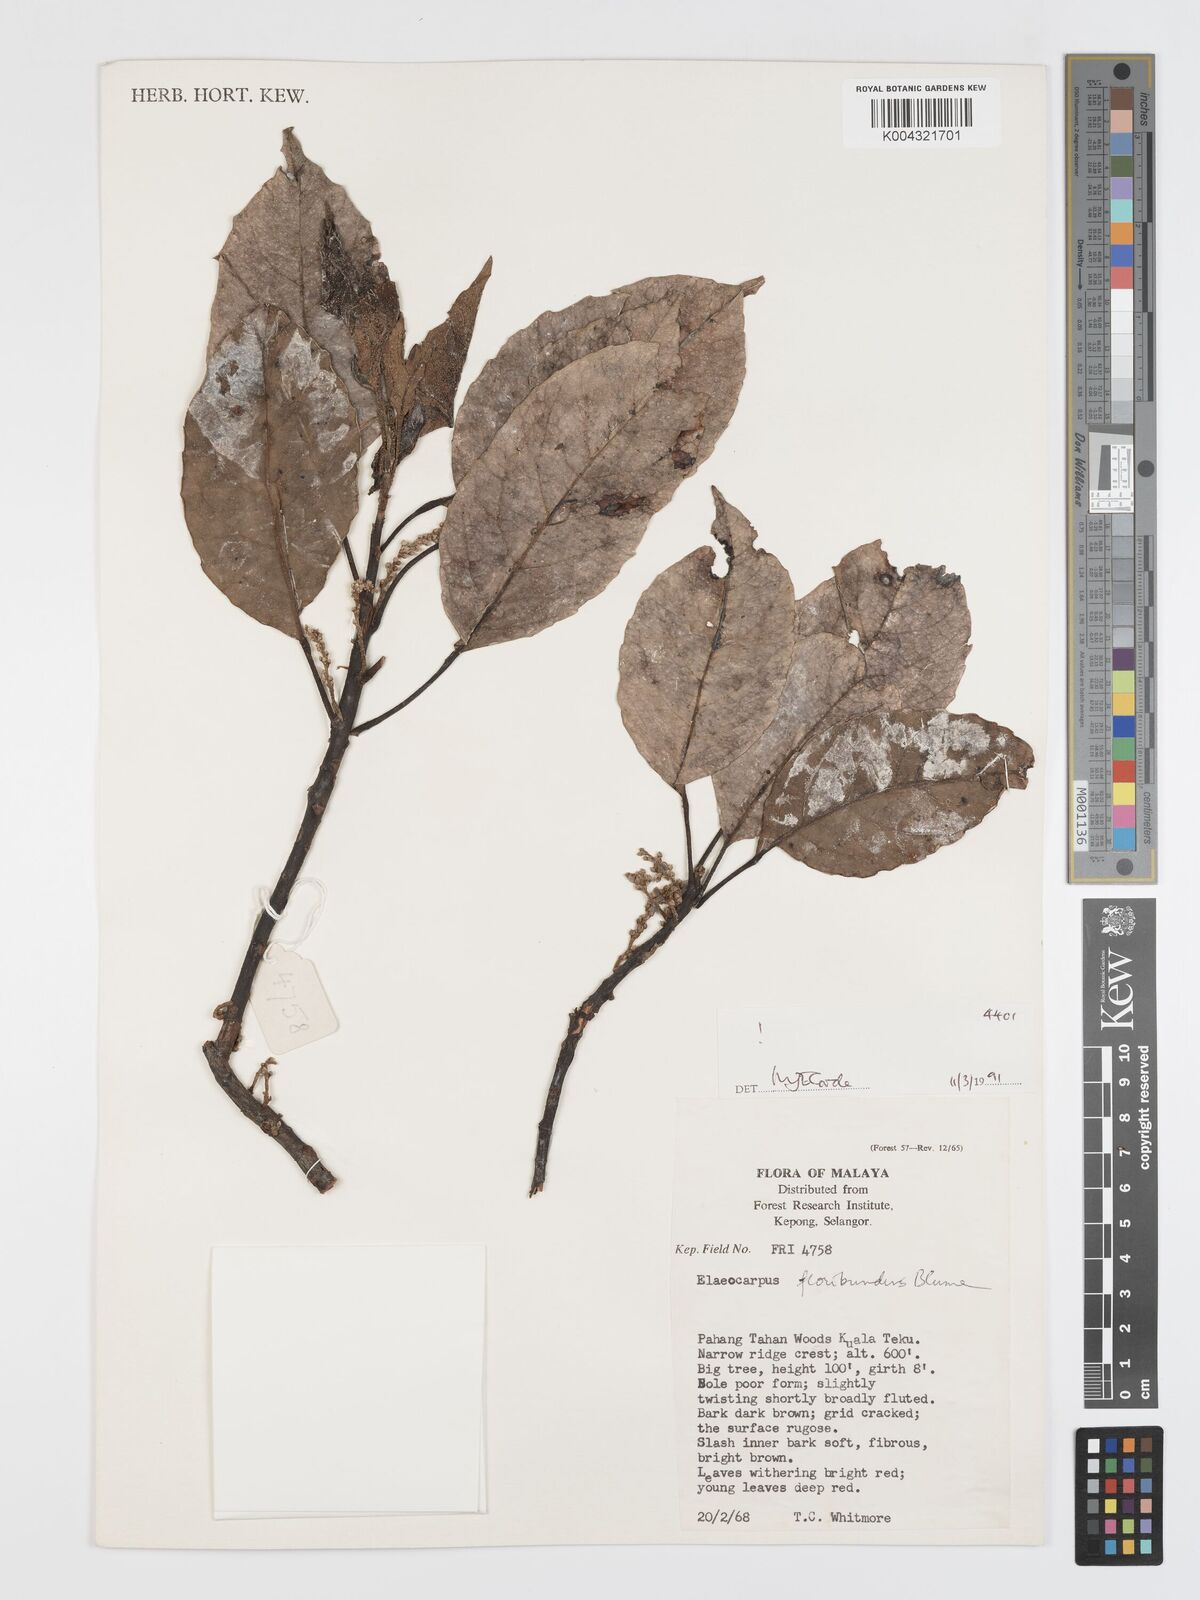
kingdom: Plantae
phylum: Tracheophyta
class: Magnoliopsida
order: Oxalidales
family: Elaeocarpaceae
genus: Elaeocarpus
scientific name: Elaeocarpus floribundus
